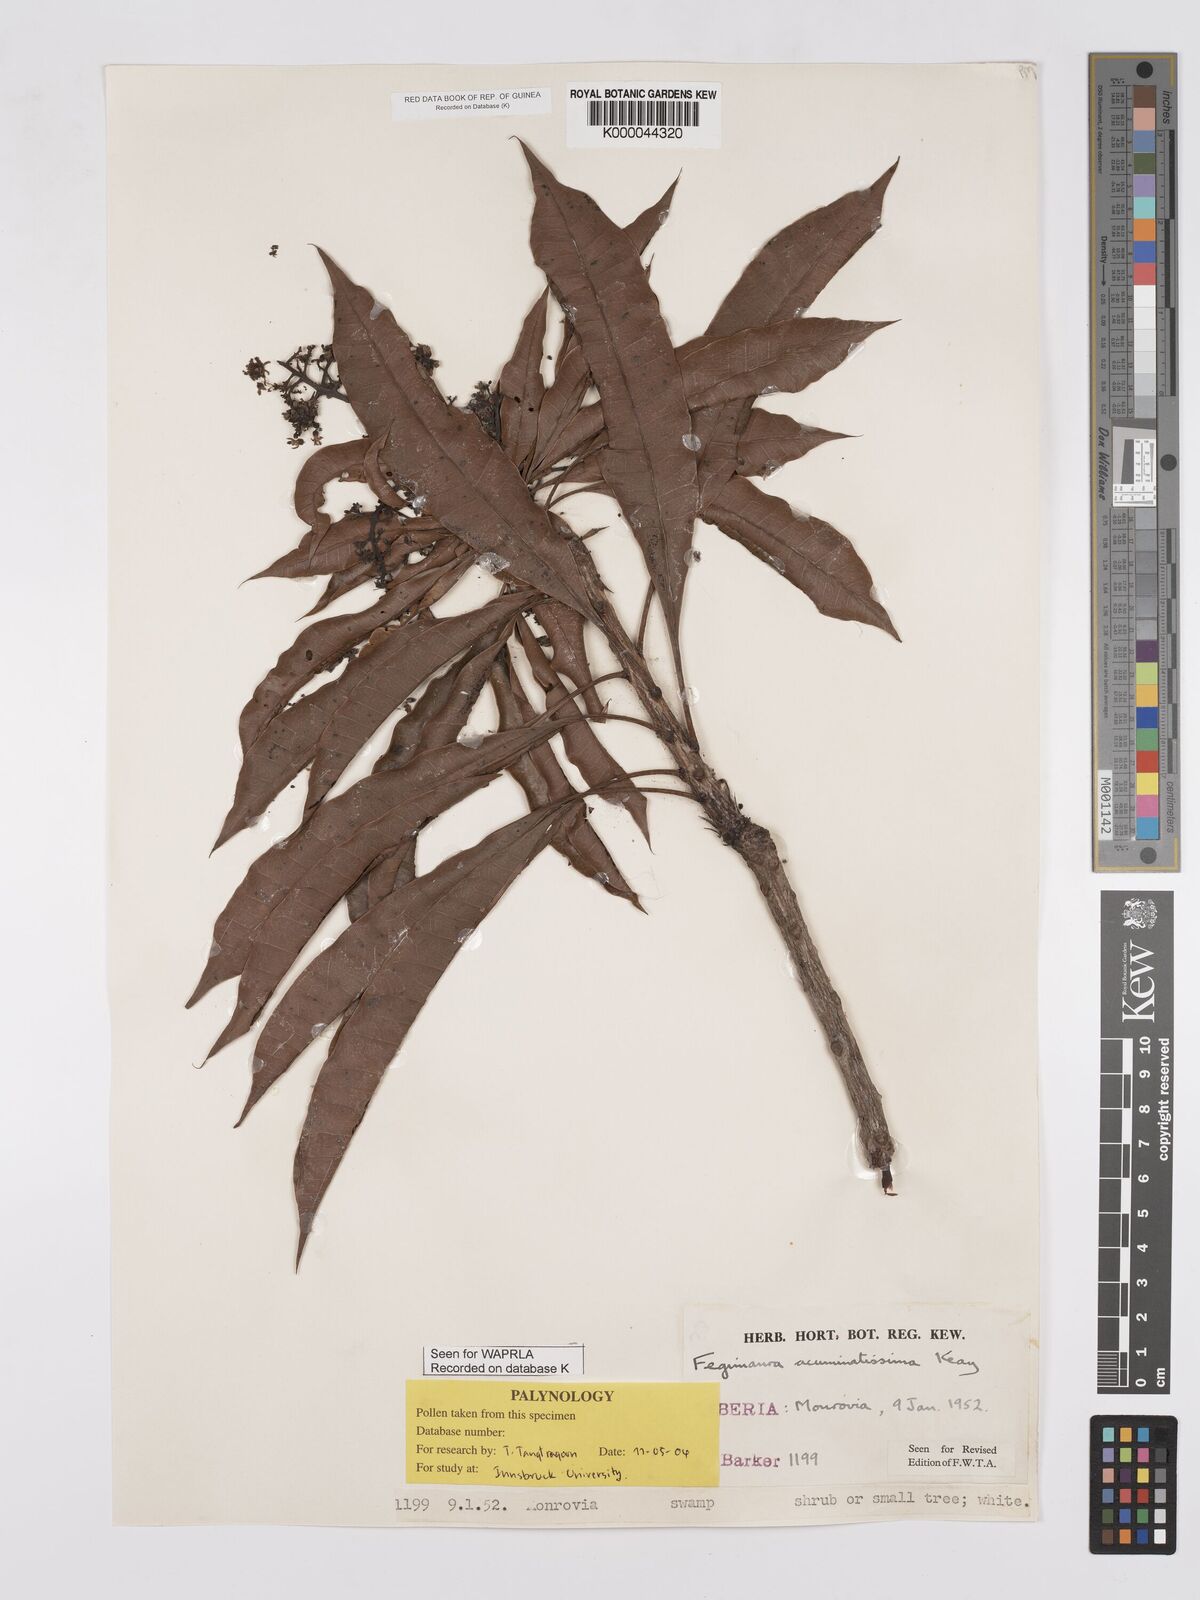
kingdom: Plantae
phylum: Tracheophyta
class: Magnoliopsida
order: Sapindales
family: Anacardiaceae
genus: Fegimanra
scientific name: Fegimanra acuminatissima
